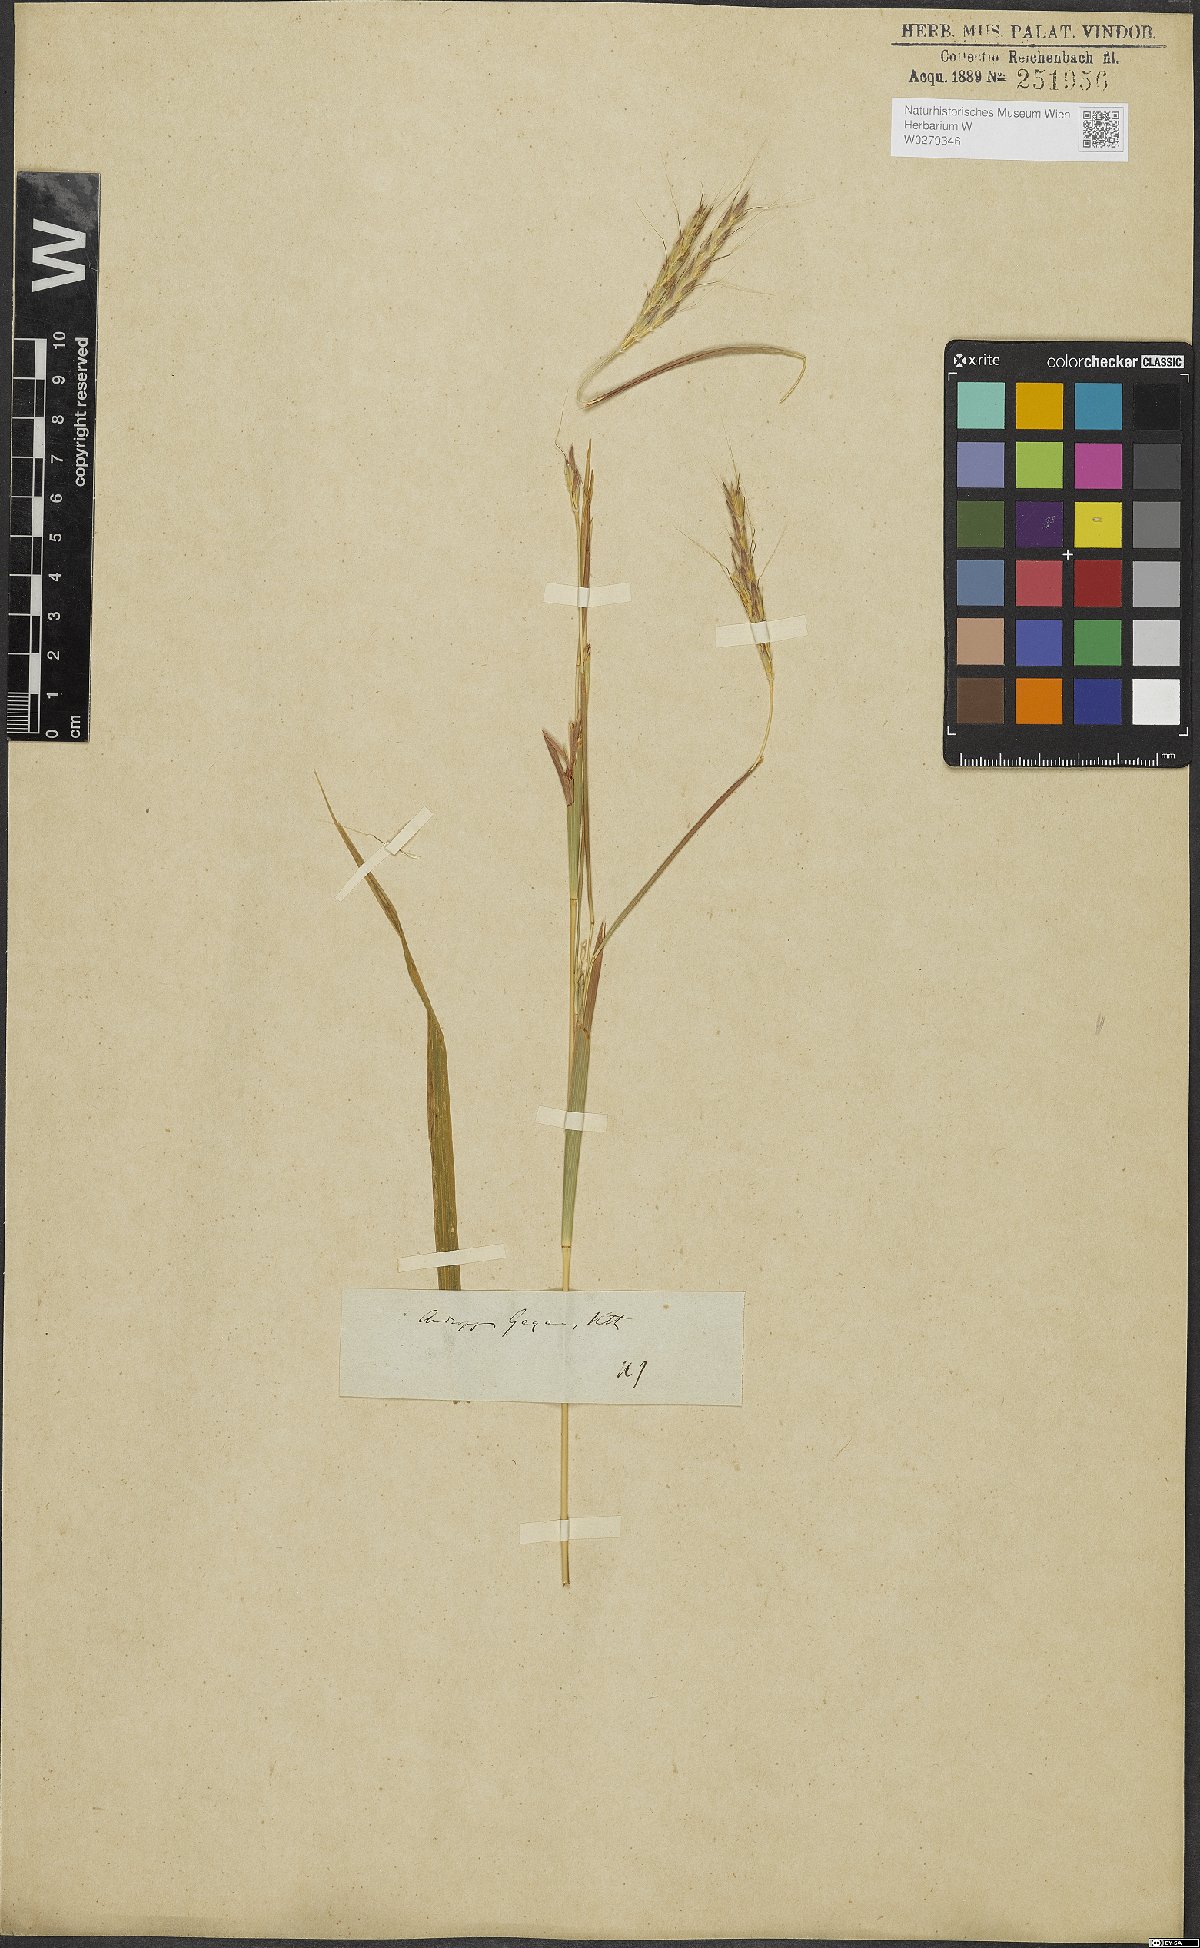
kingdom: Plantae
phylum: Tracheophyta
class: Liliopsida
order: Poales
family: Poaceae
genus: Diectomis
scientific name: Diectomis fastigiata
